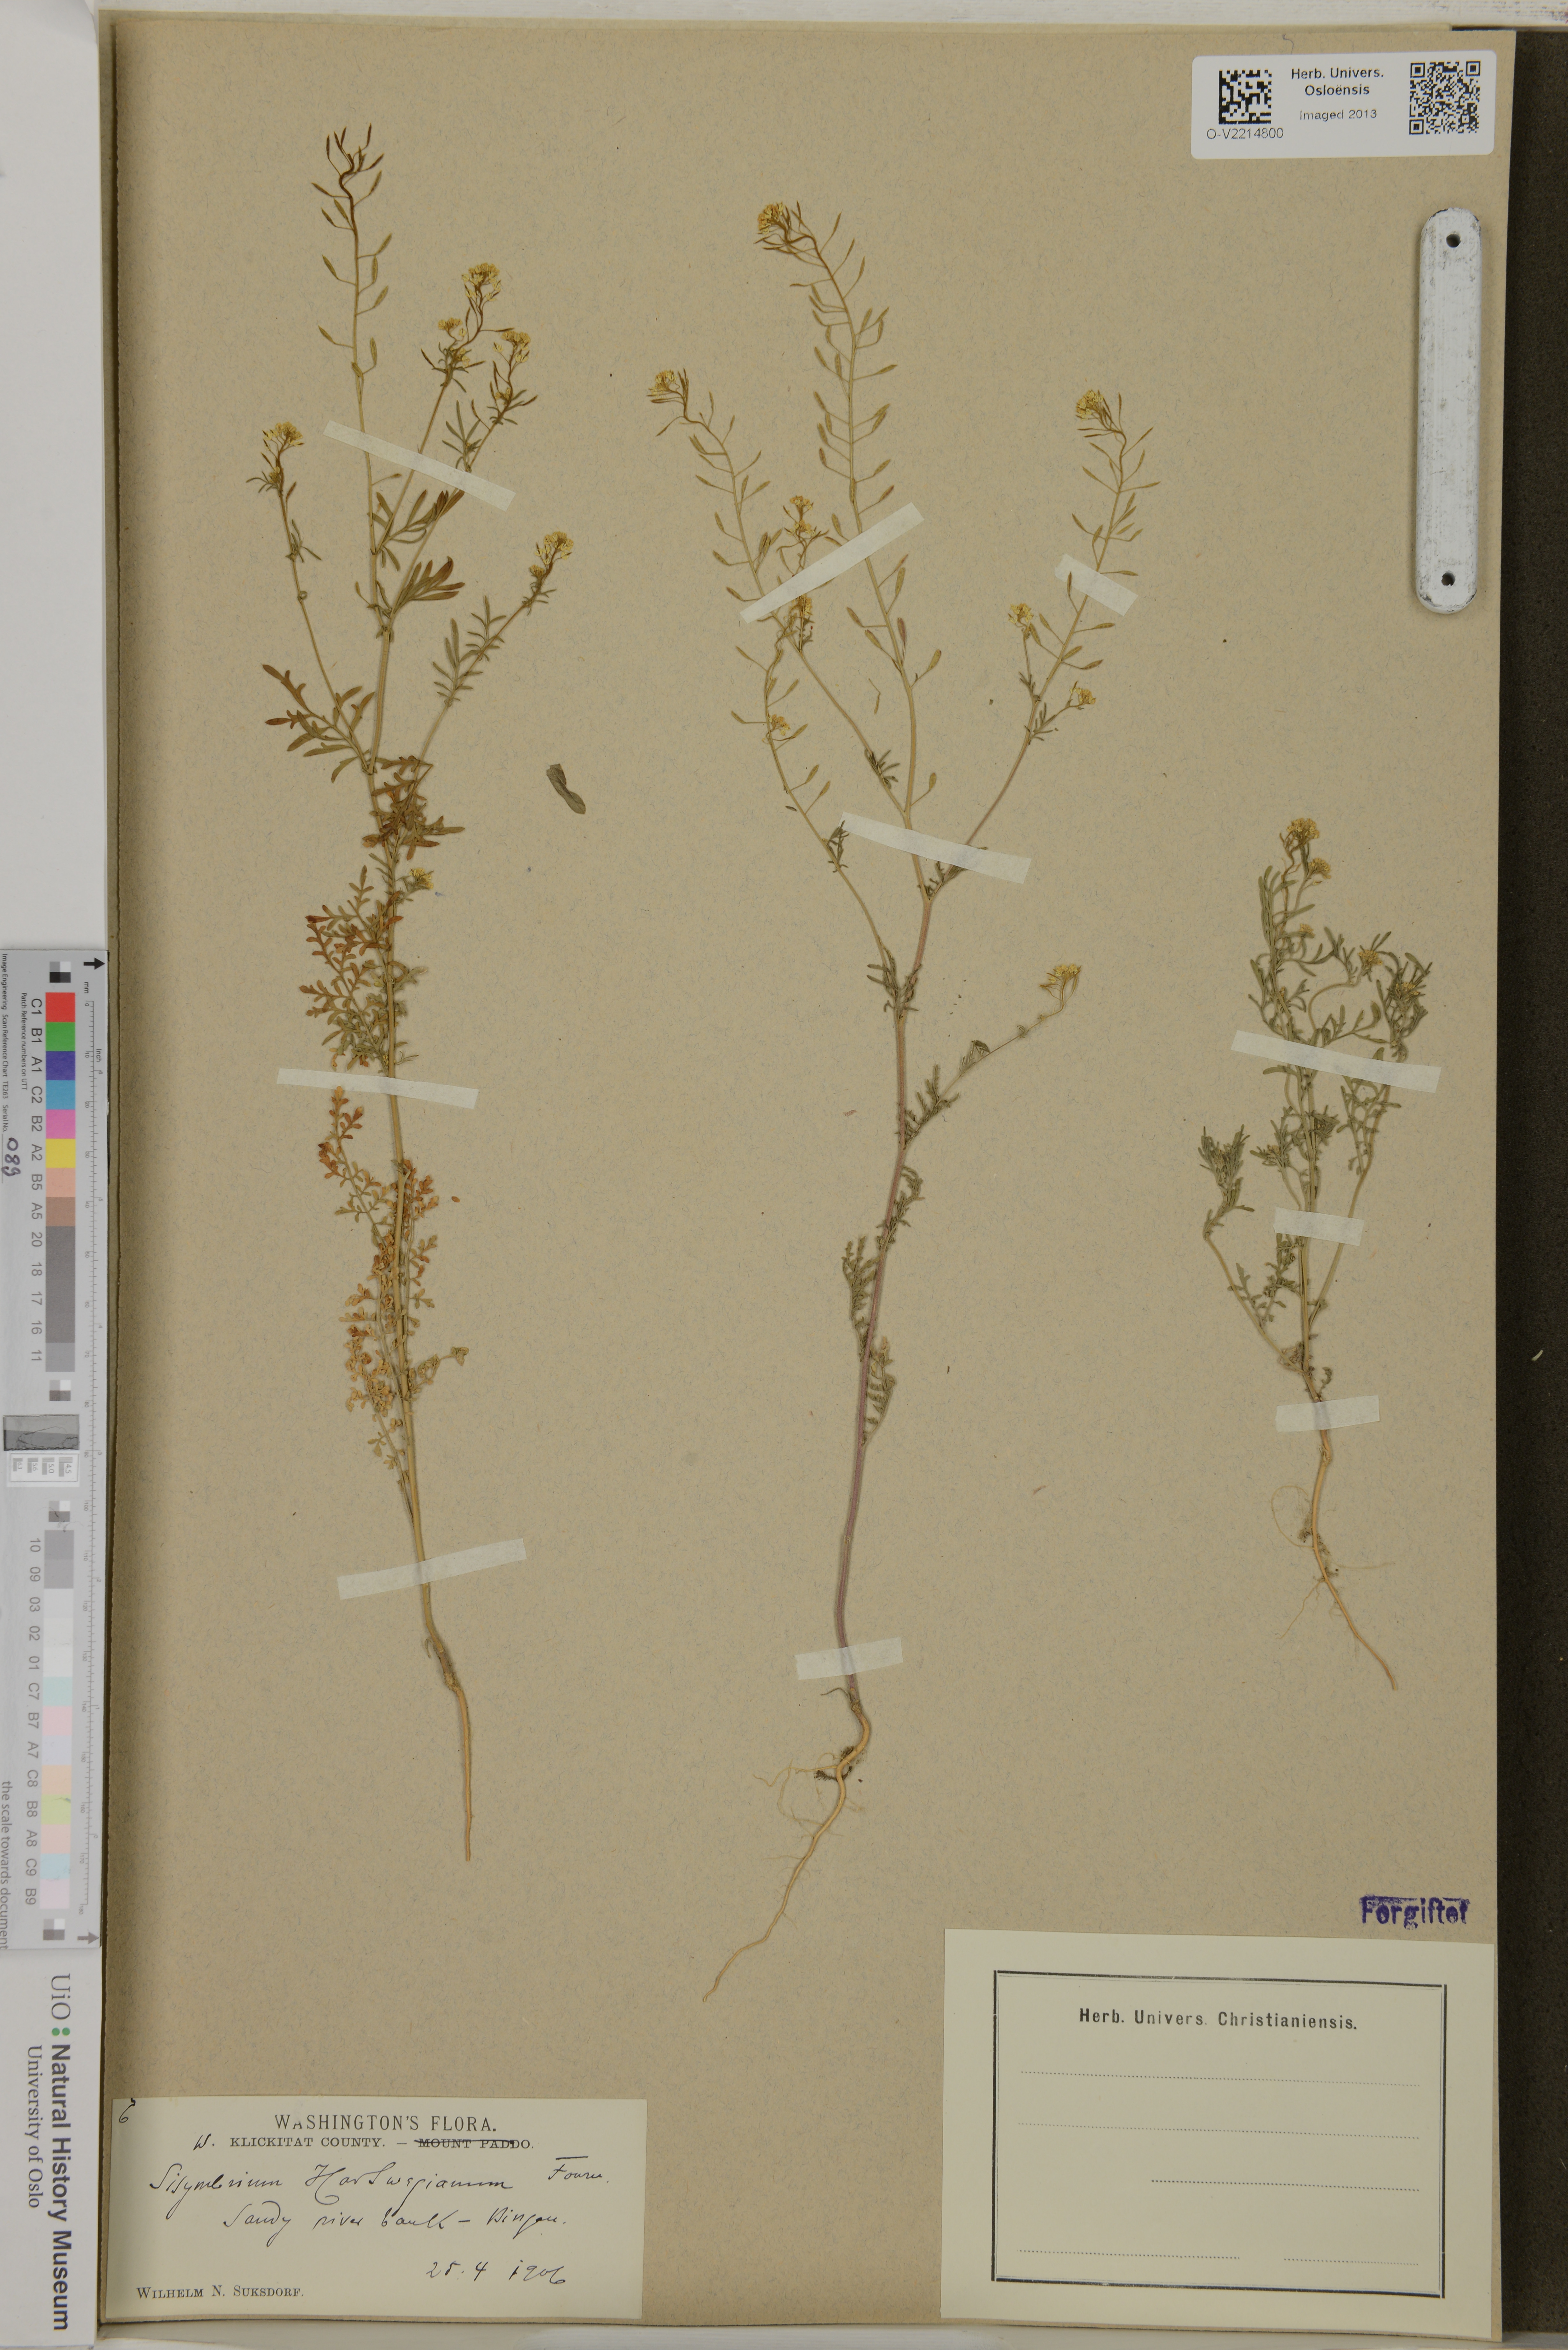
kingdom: Plantae
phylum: Tracheophyta
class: Magnoliopsida
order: Brassicales
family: Brassicaceae
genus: Descurainia
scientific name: Descurainia hartwegiana
